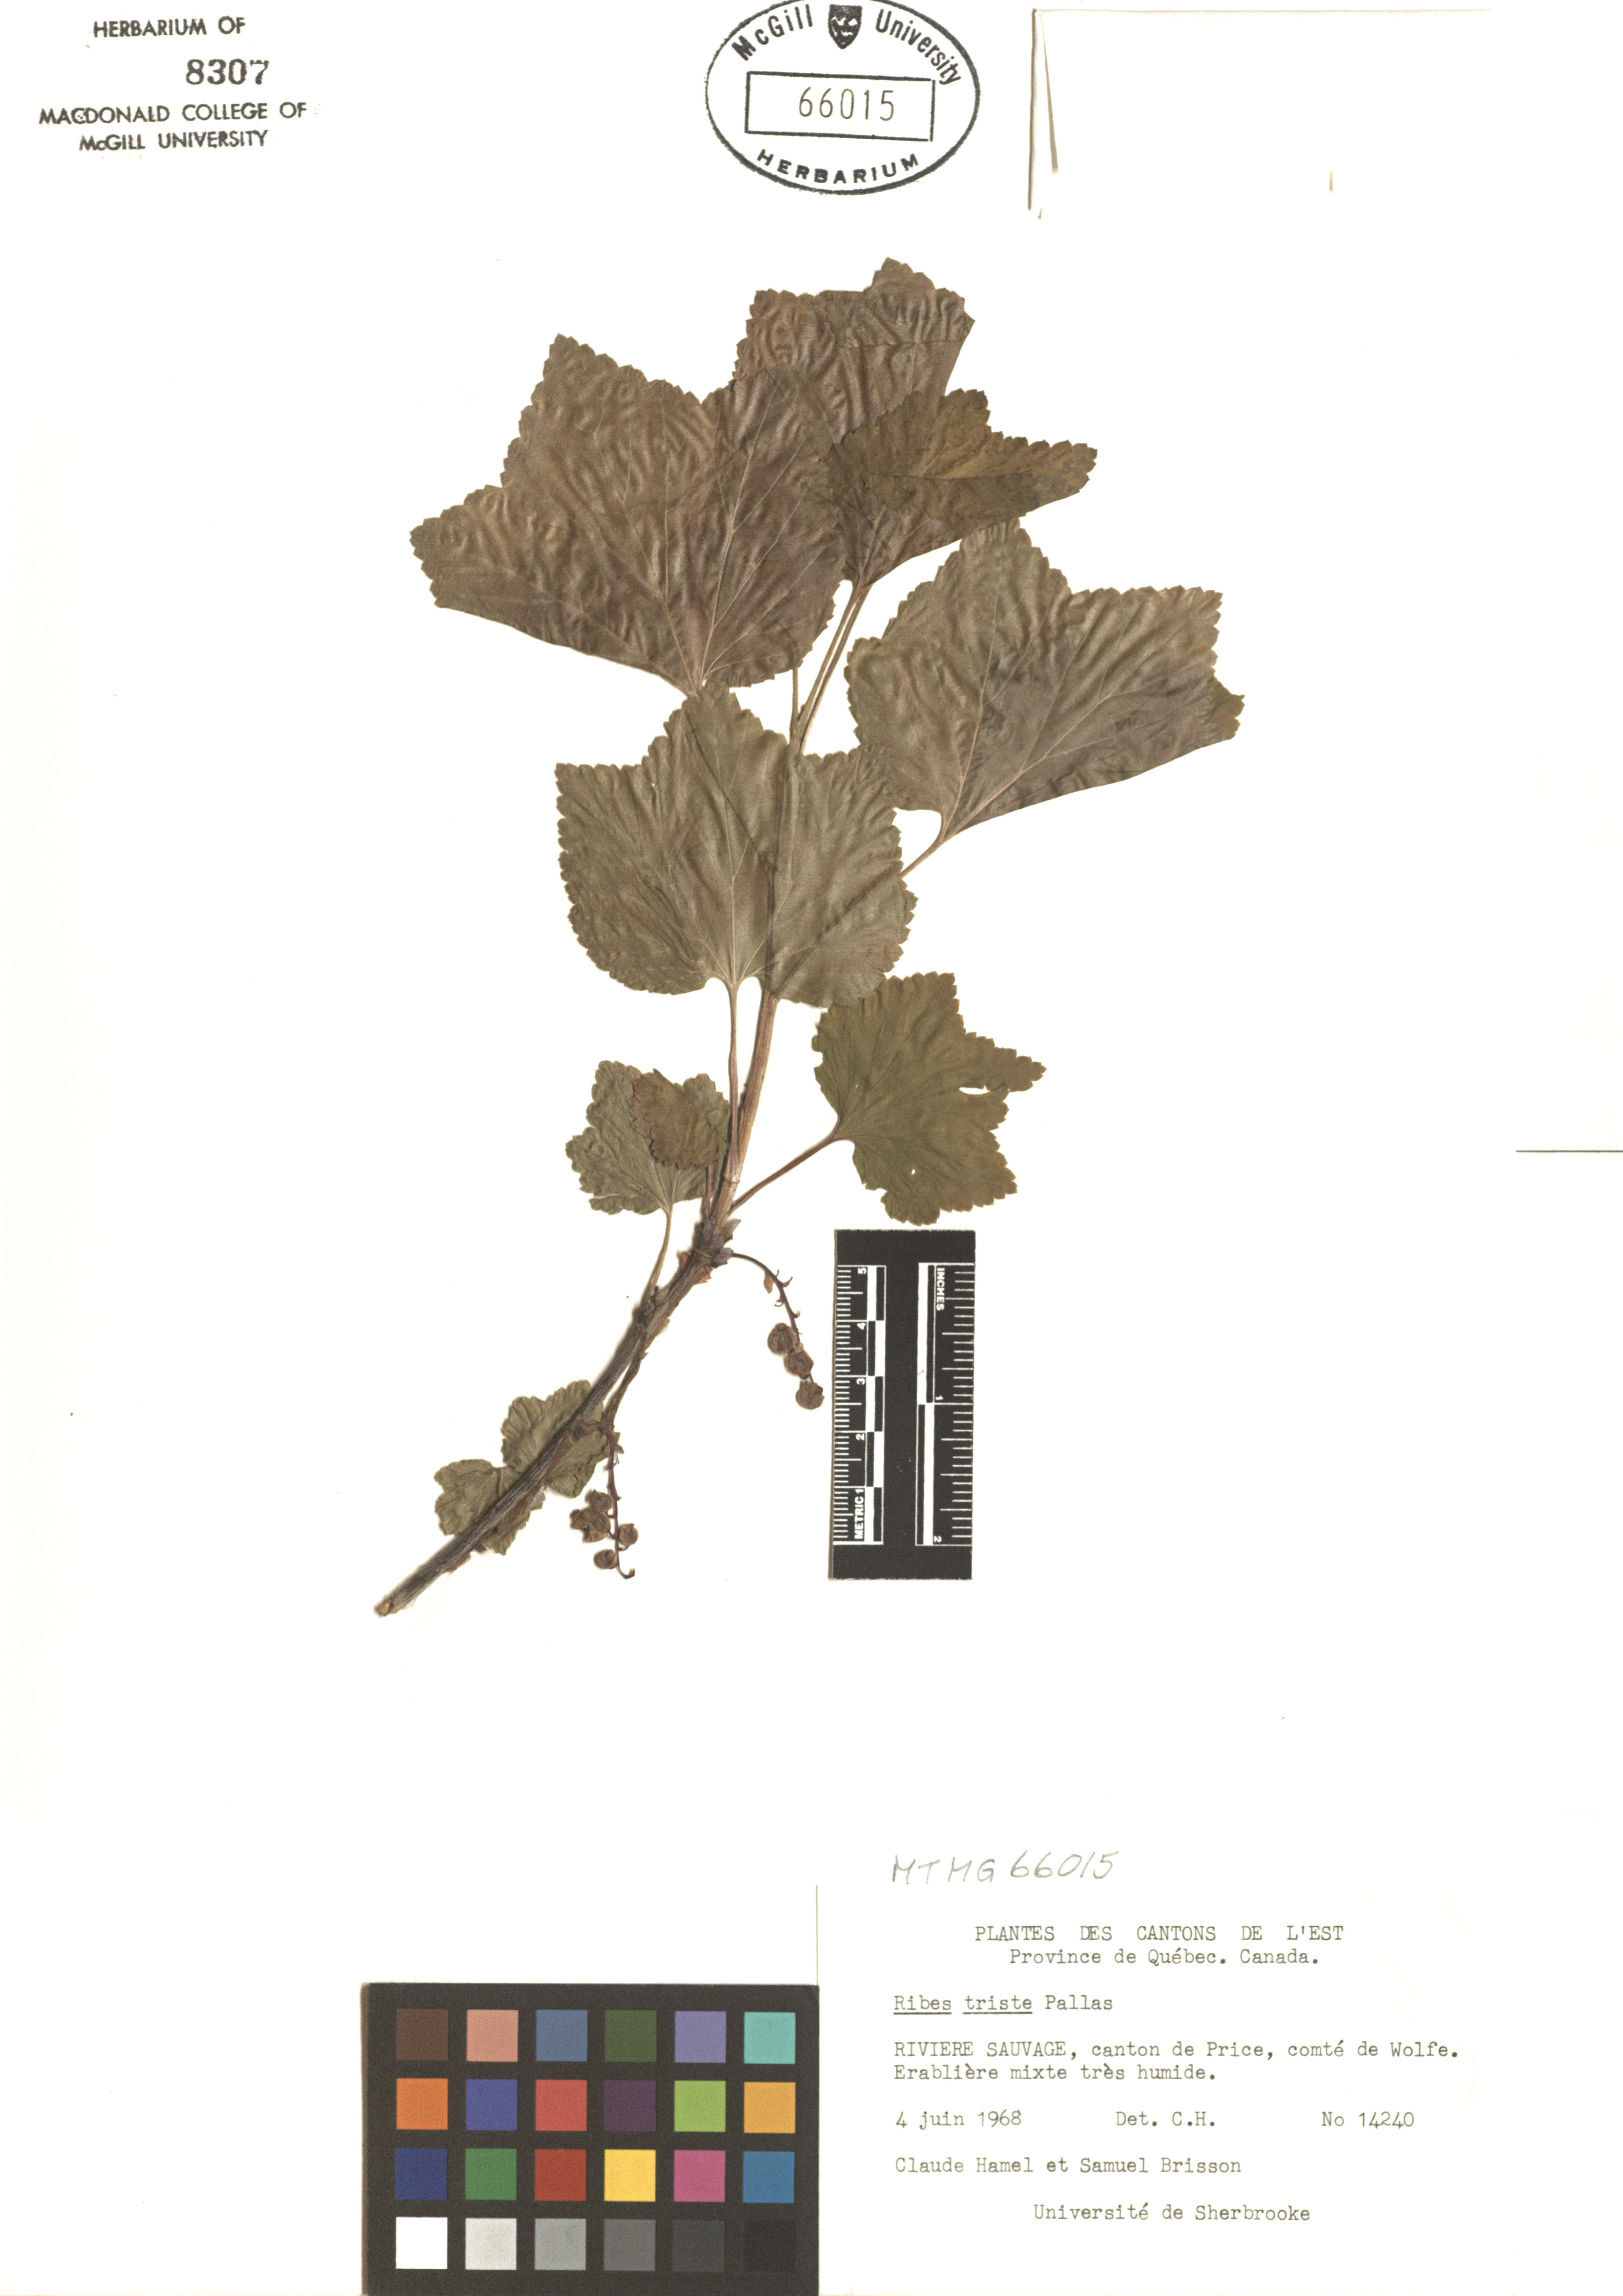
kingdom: Plantae
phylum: Tracheophyta
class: Magnoliopsida
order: Saxifragales
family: Grossulariaceae
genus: Ribes
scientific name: Ribes triste
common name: Swamp red currant
